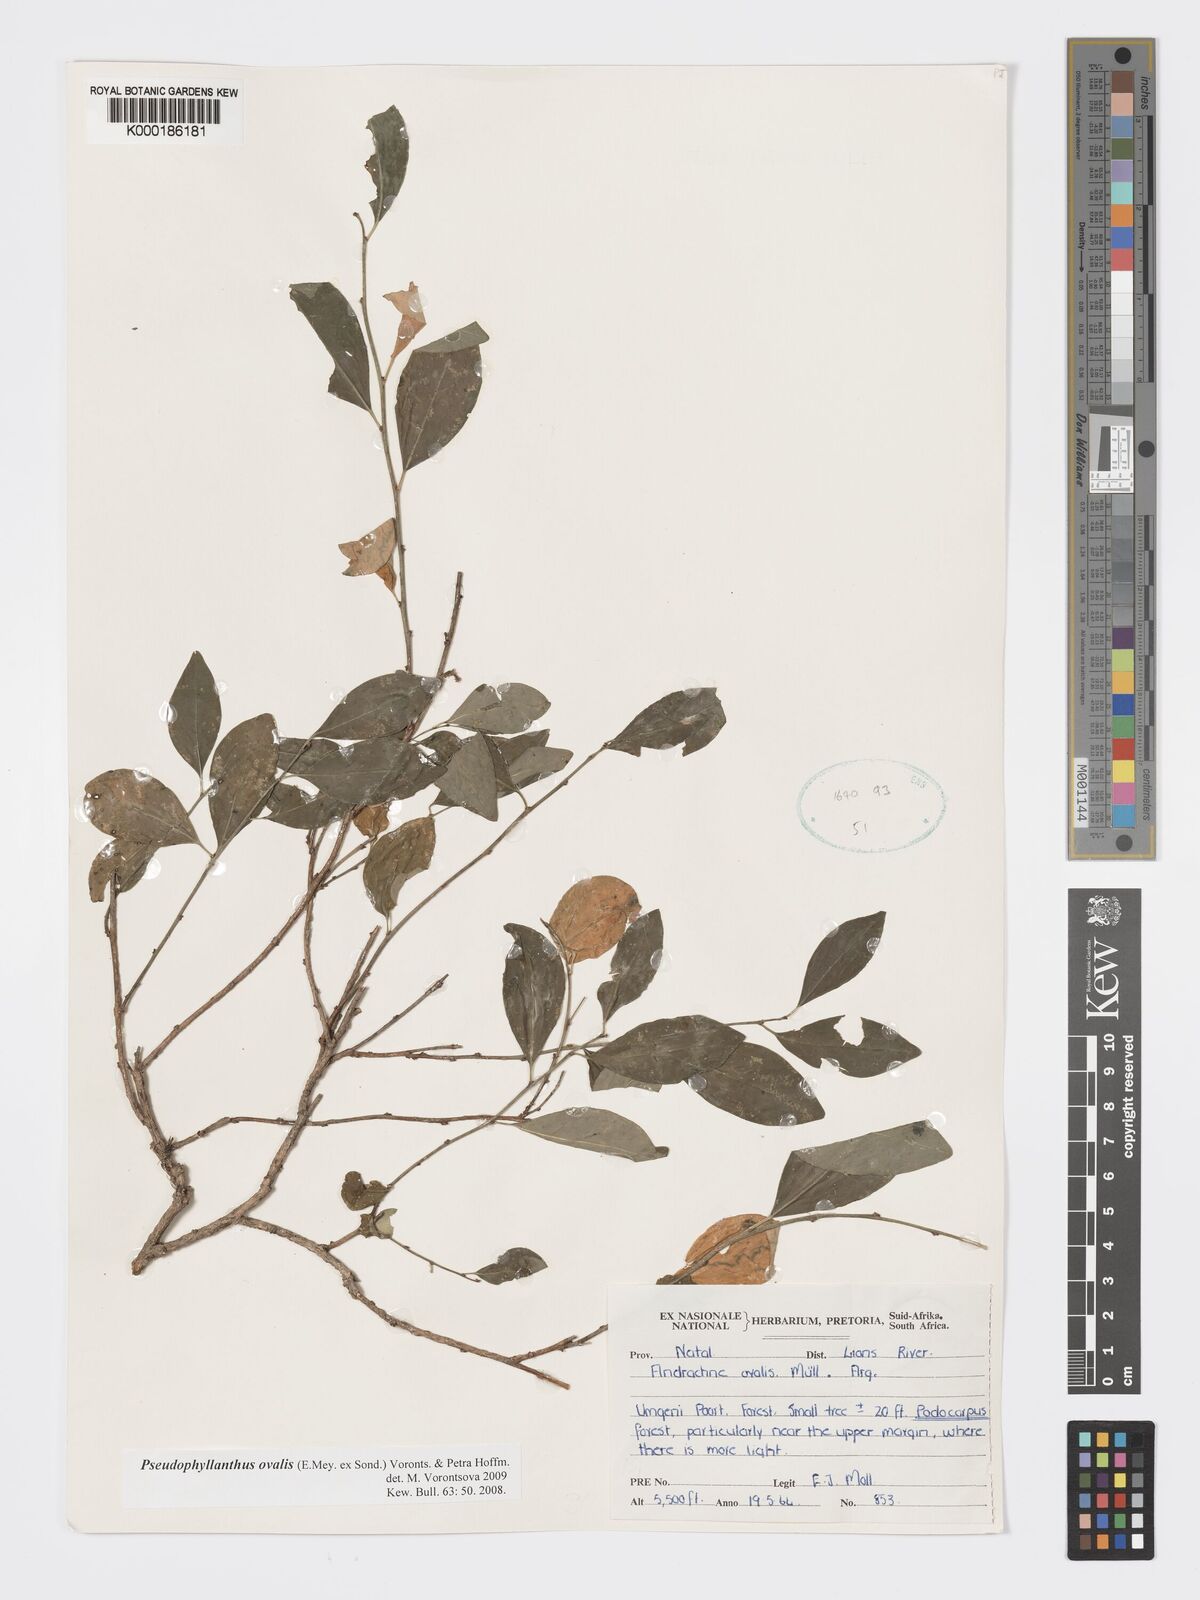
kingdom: Plantae
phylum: Tracheophyta
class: Magnoliopsida
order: Malpighiales
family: Phyllanthaceae
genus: Pseudophyllanthus
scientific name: Pseudophyllanthus ovalis
